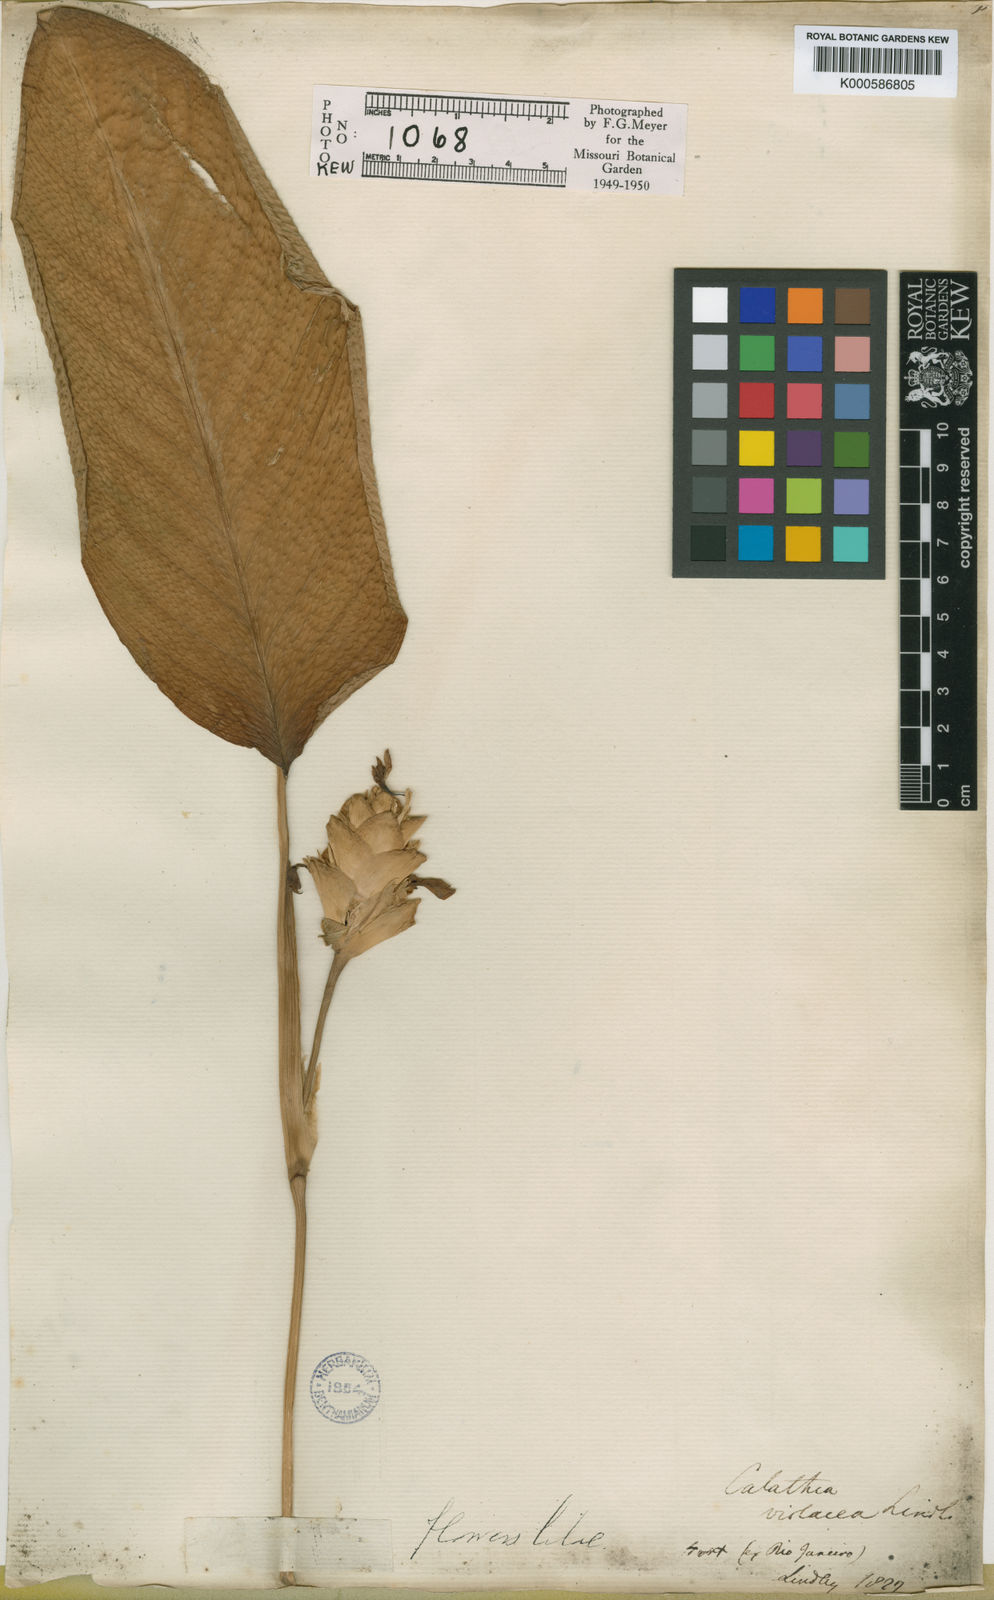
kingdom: Plantae
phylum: Tracheophyta
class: Liliopsida
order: Zingiberales
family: Marantaceae
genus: Goeppertia
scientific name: Goeppertia violacea
